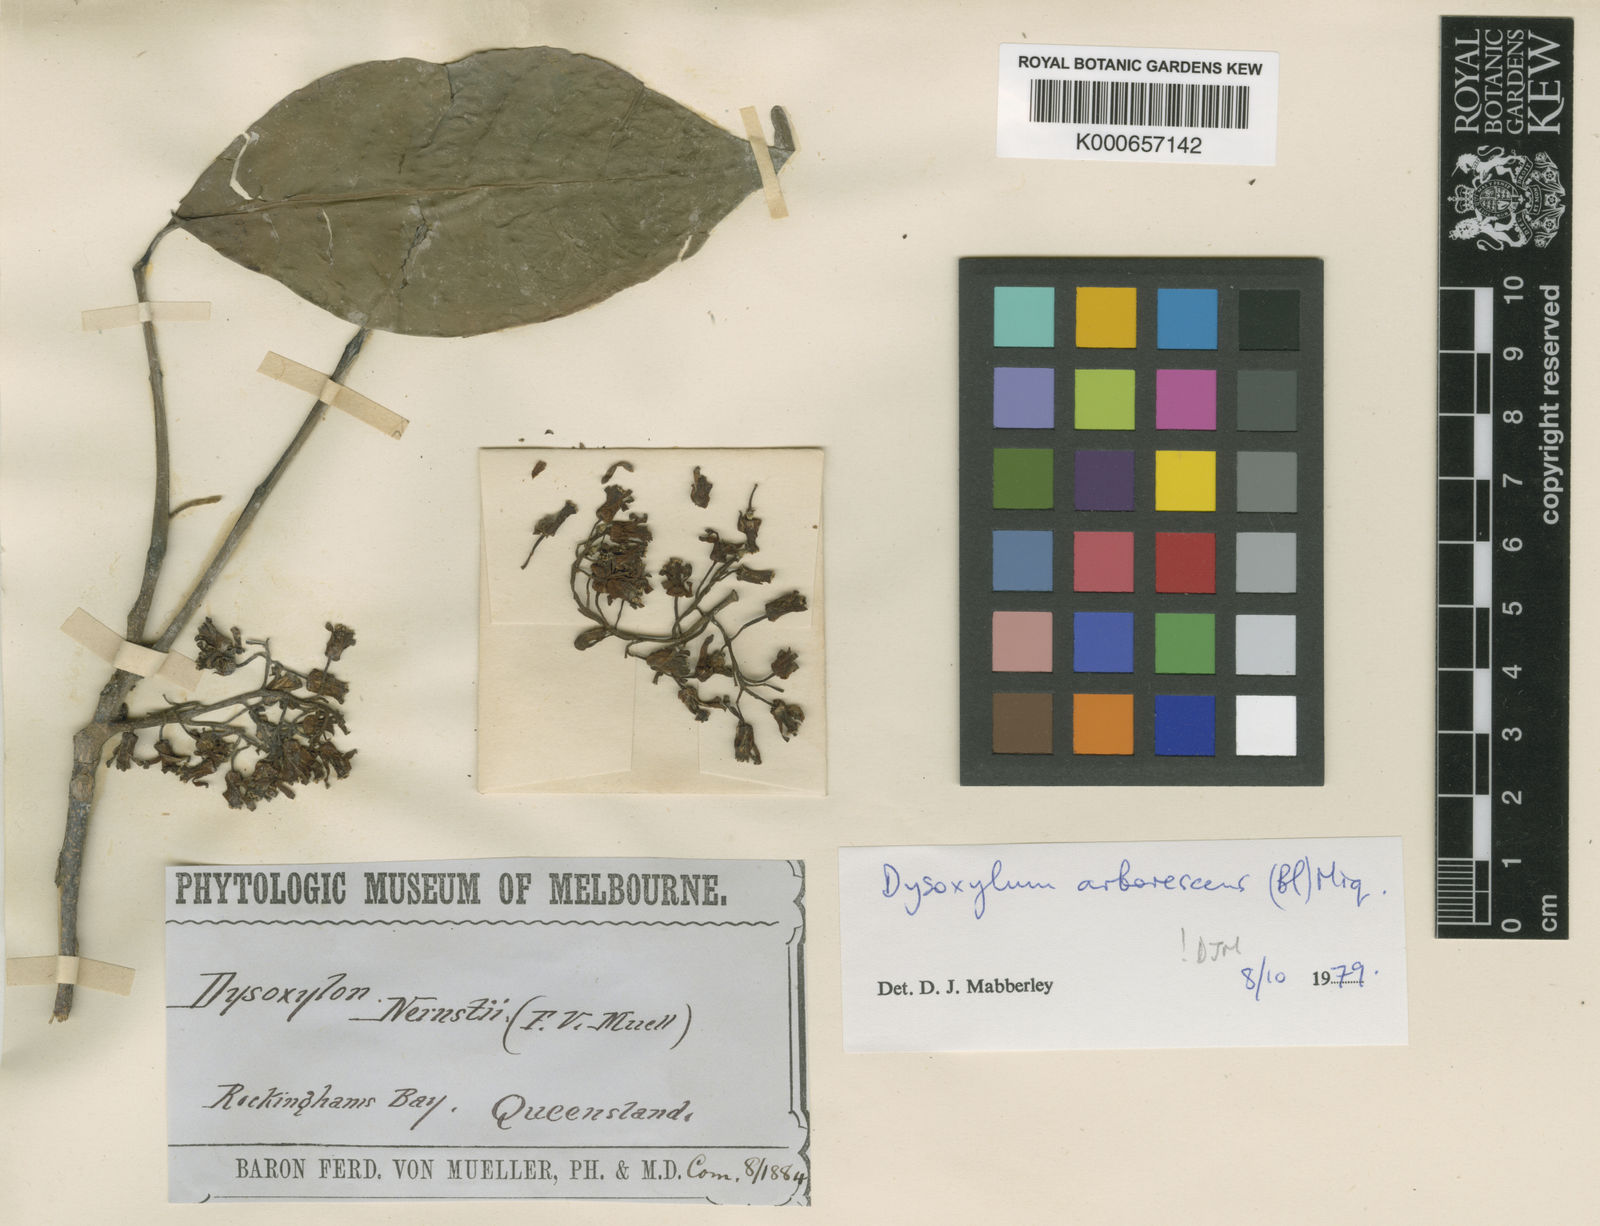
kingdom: Plantae
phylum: Tracheophyta
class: Magnoliopsida
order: Sapindales
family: Meliaceae
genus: Goniocheton
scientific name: Goniocheton arborescens
